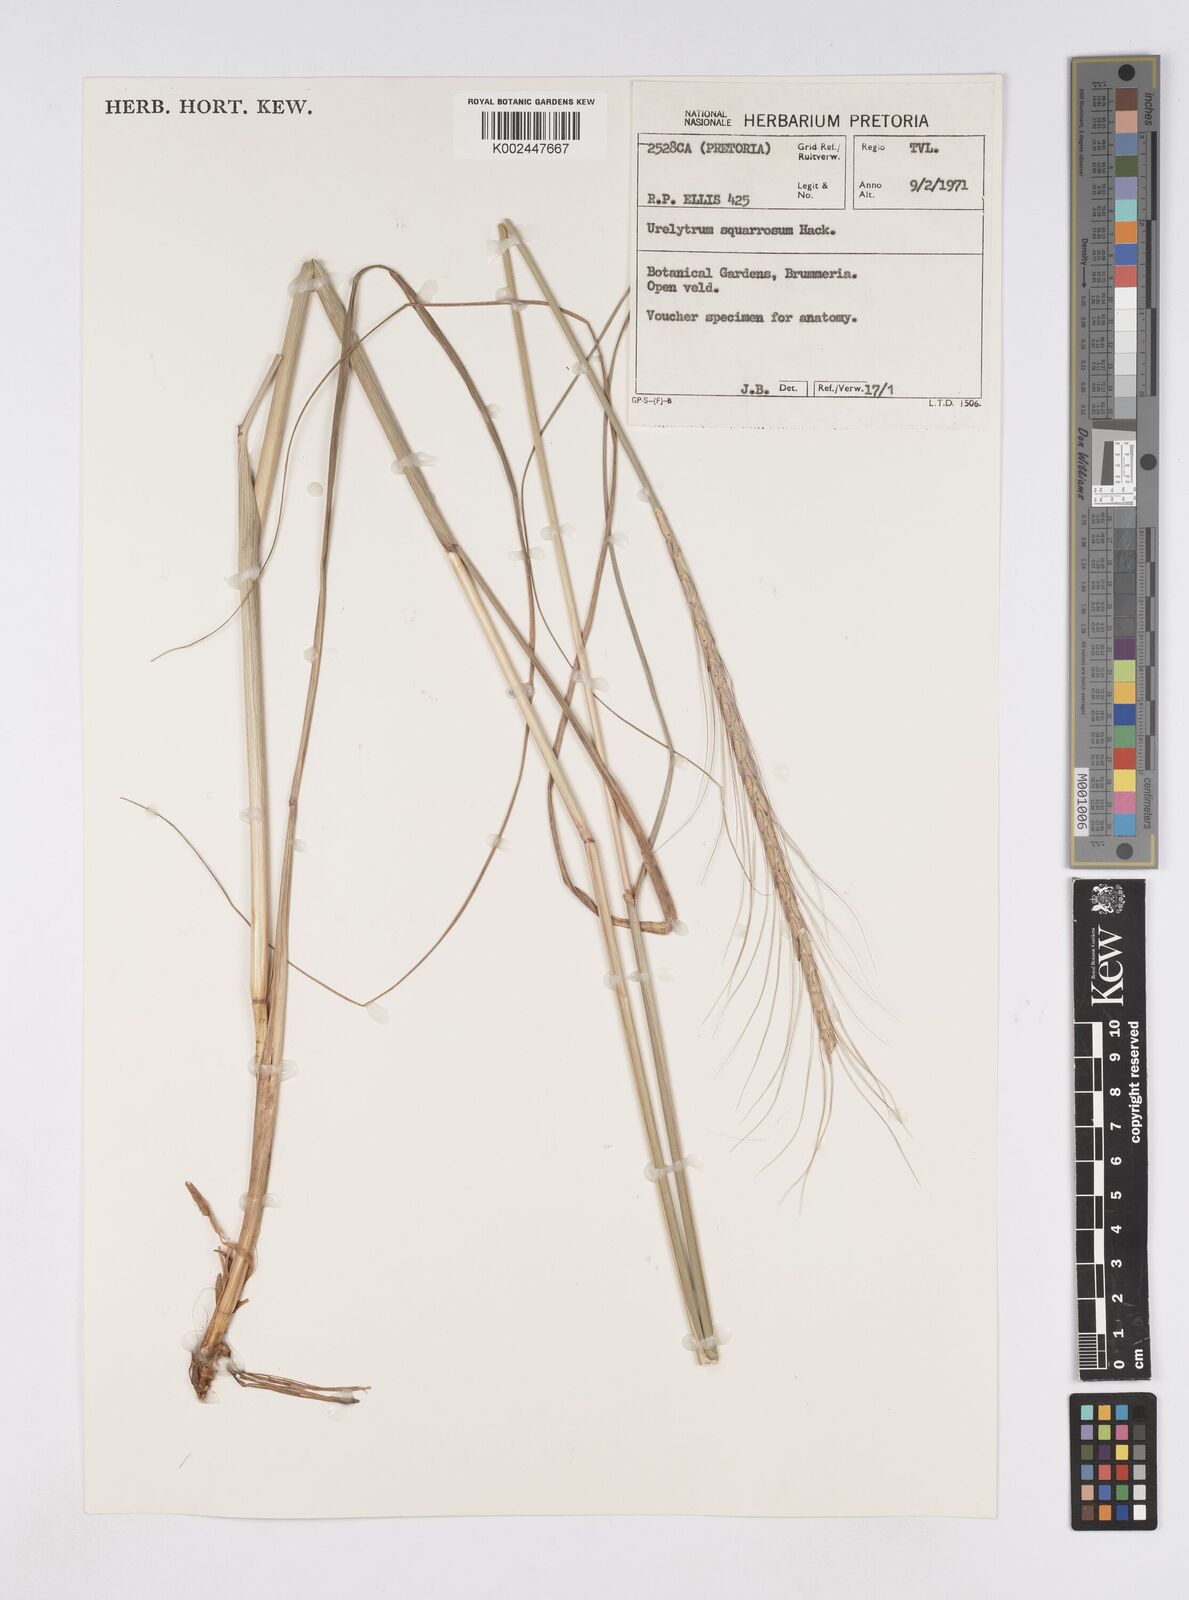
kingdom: Plantae
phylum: Tracheophyta
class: Liliopsida
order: Poales
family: Poaceae
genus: Urelytrum
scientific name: Urelytrum agropyroides
